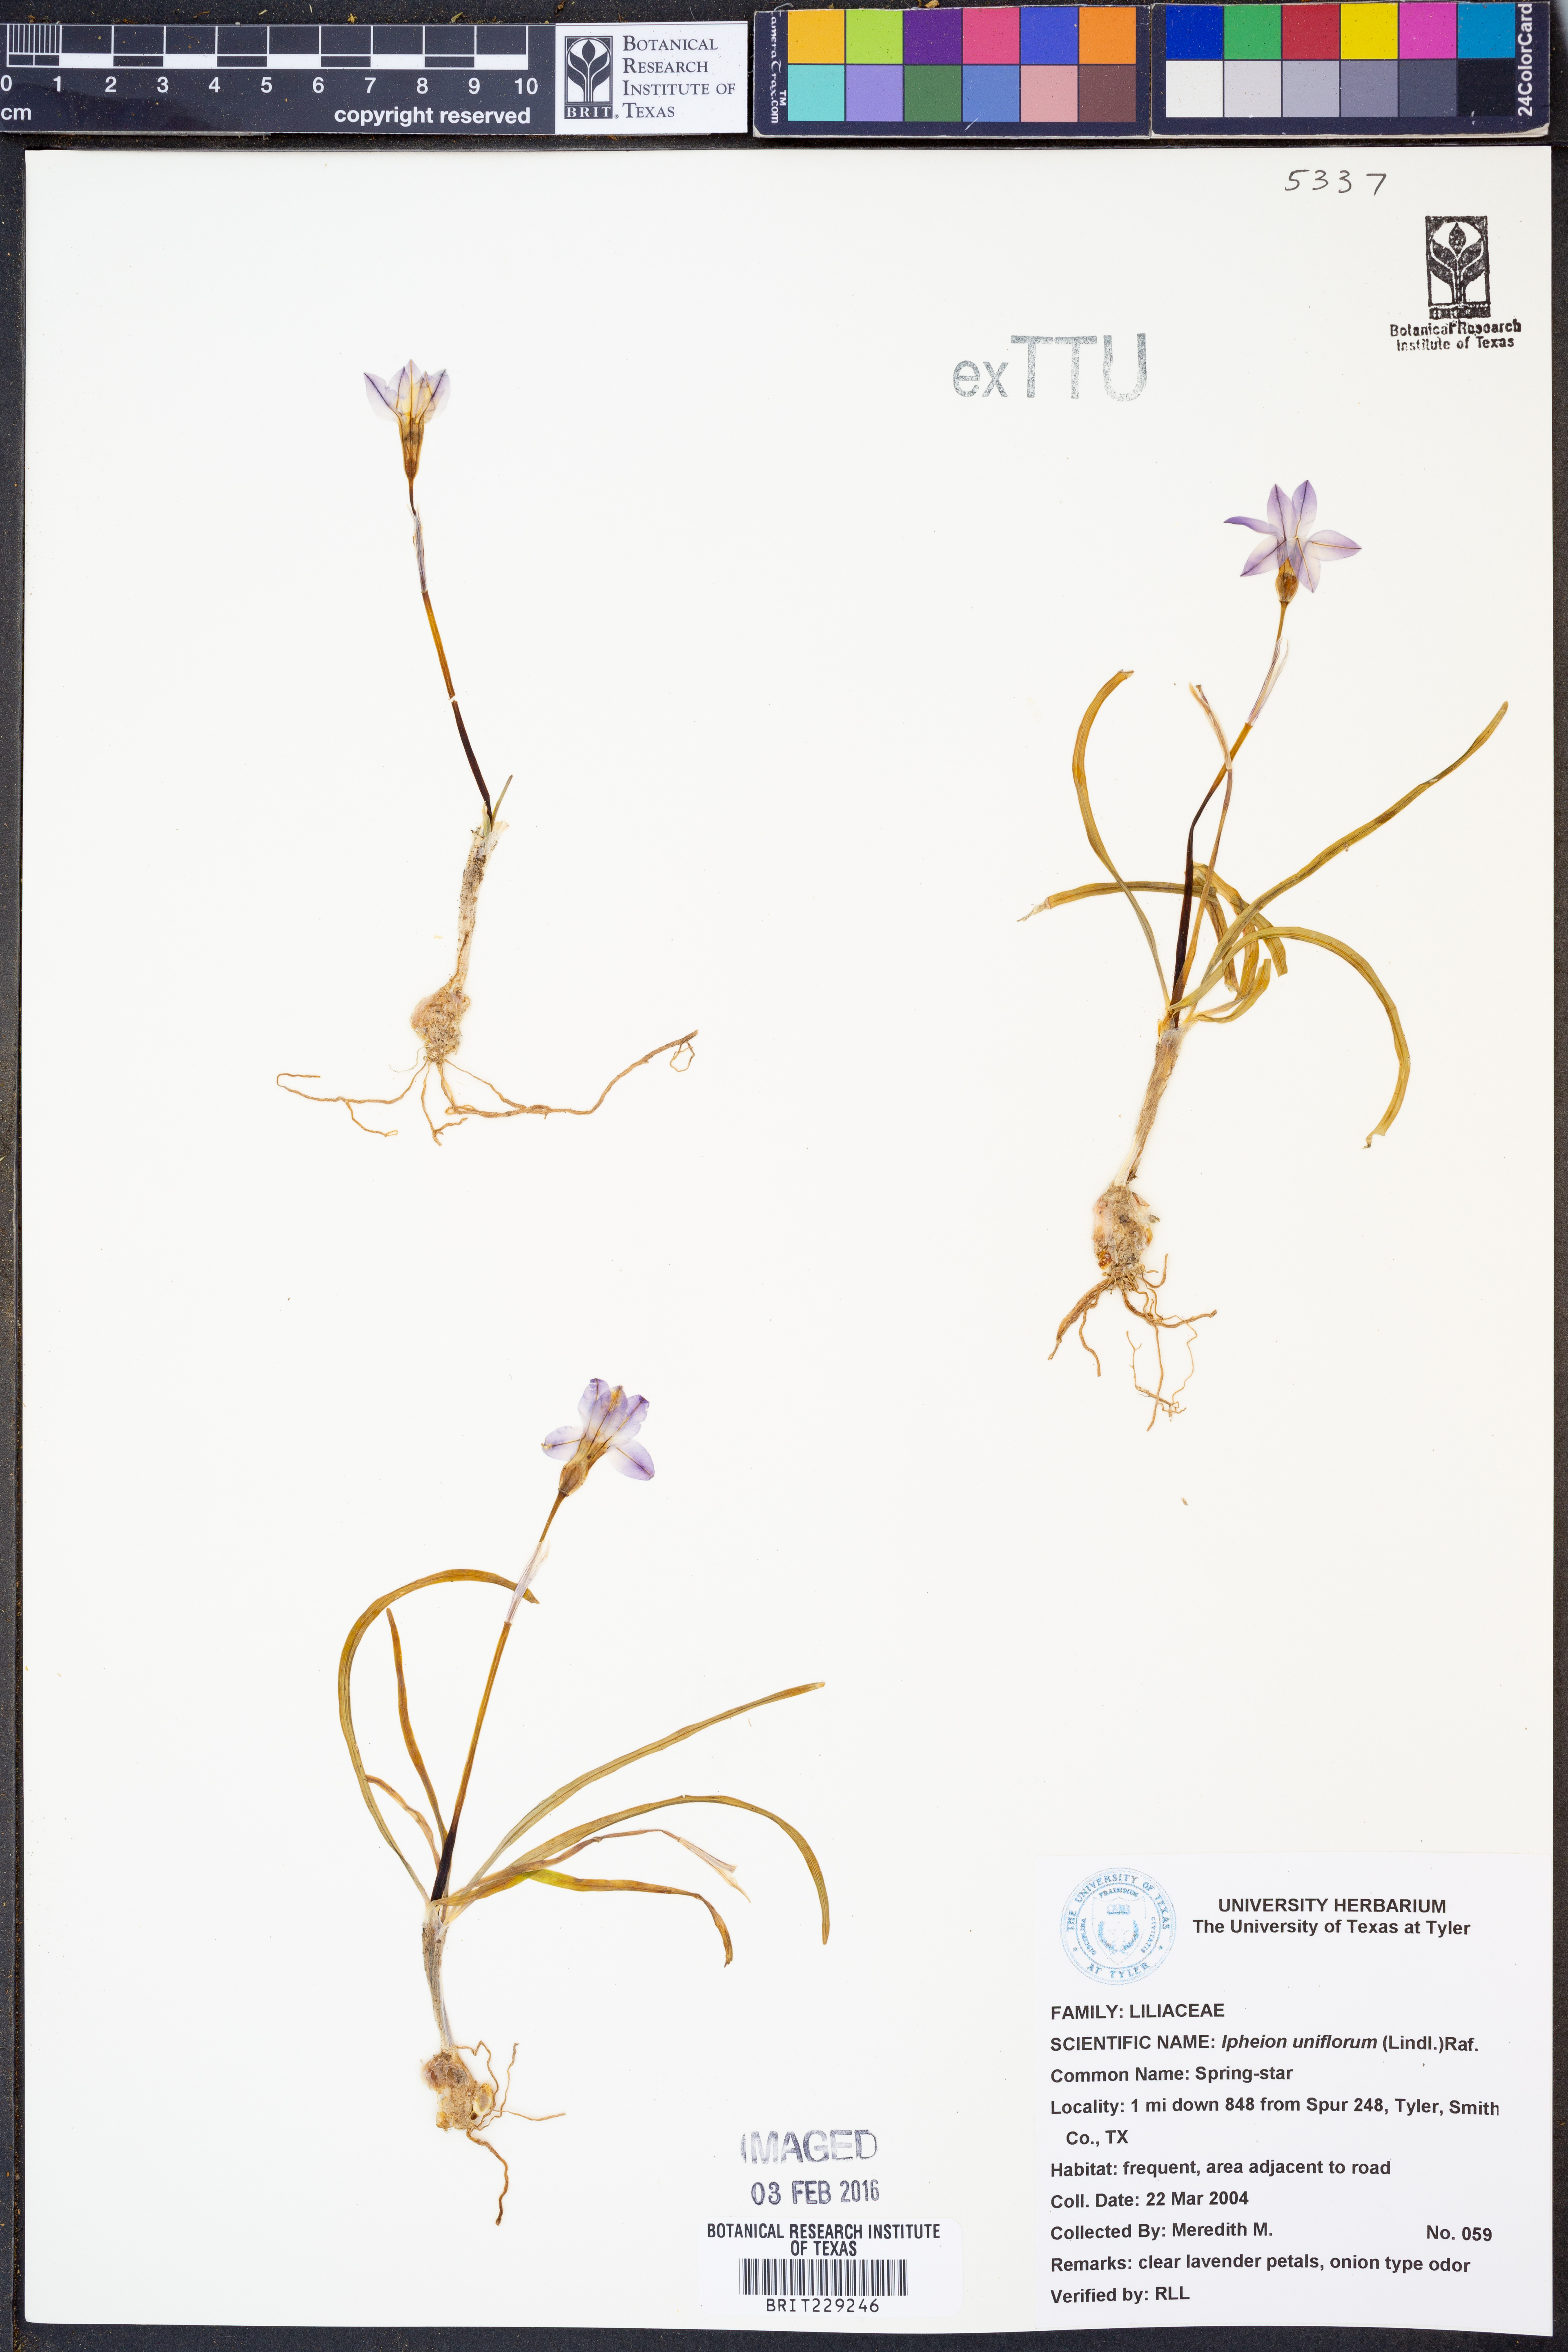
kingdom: Plantae
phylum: Tracheophyta
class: Liliopsida
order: Asparagales
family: Amaryllidaceae
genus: Ipheion
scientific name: Ipheion uniflorum
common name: Spring starflower
